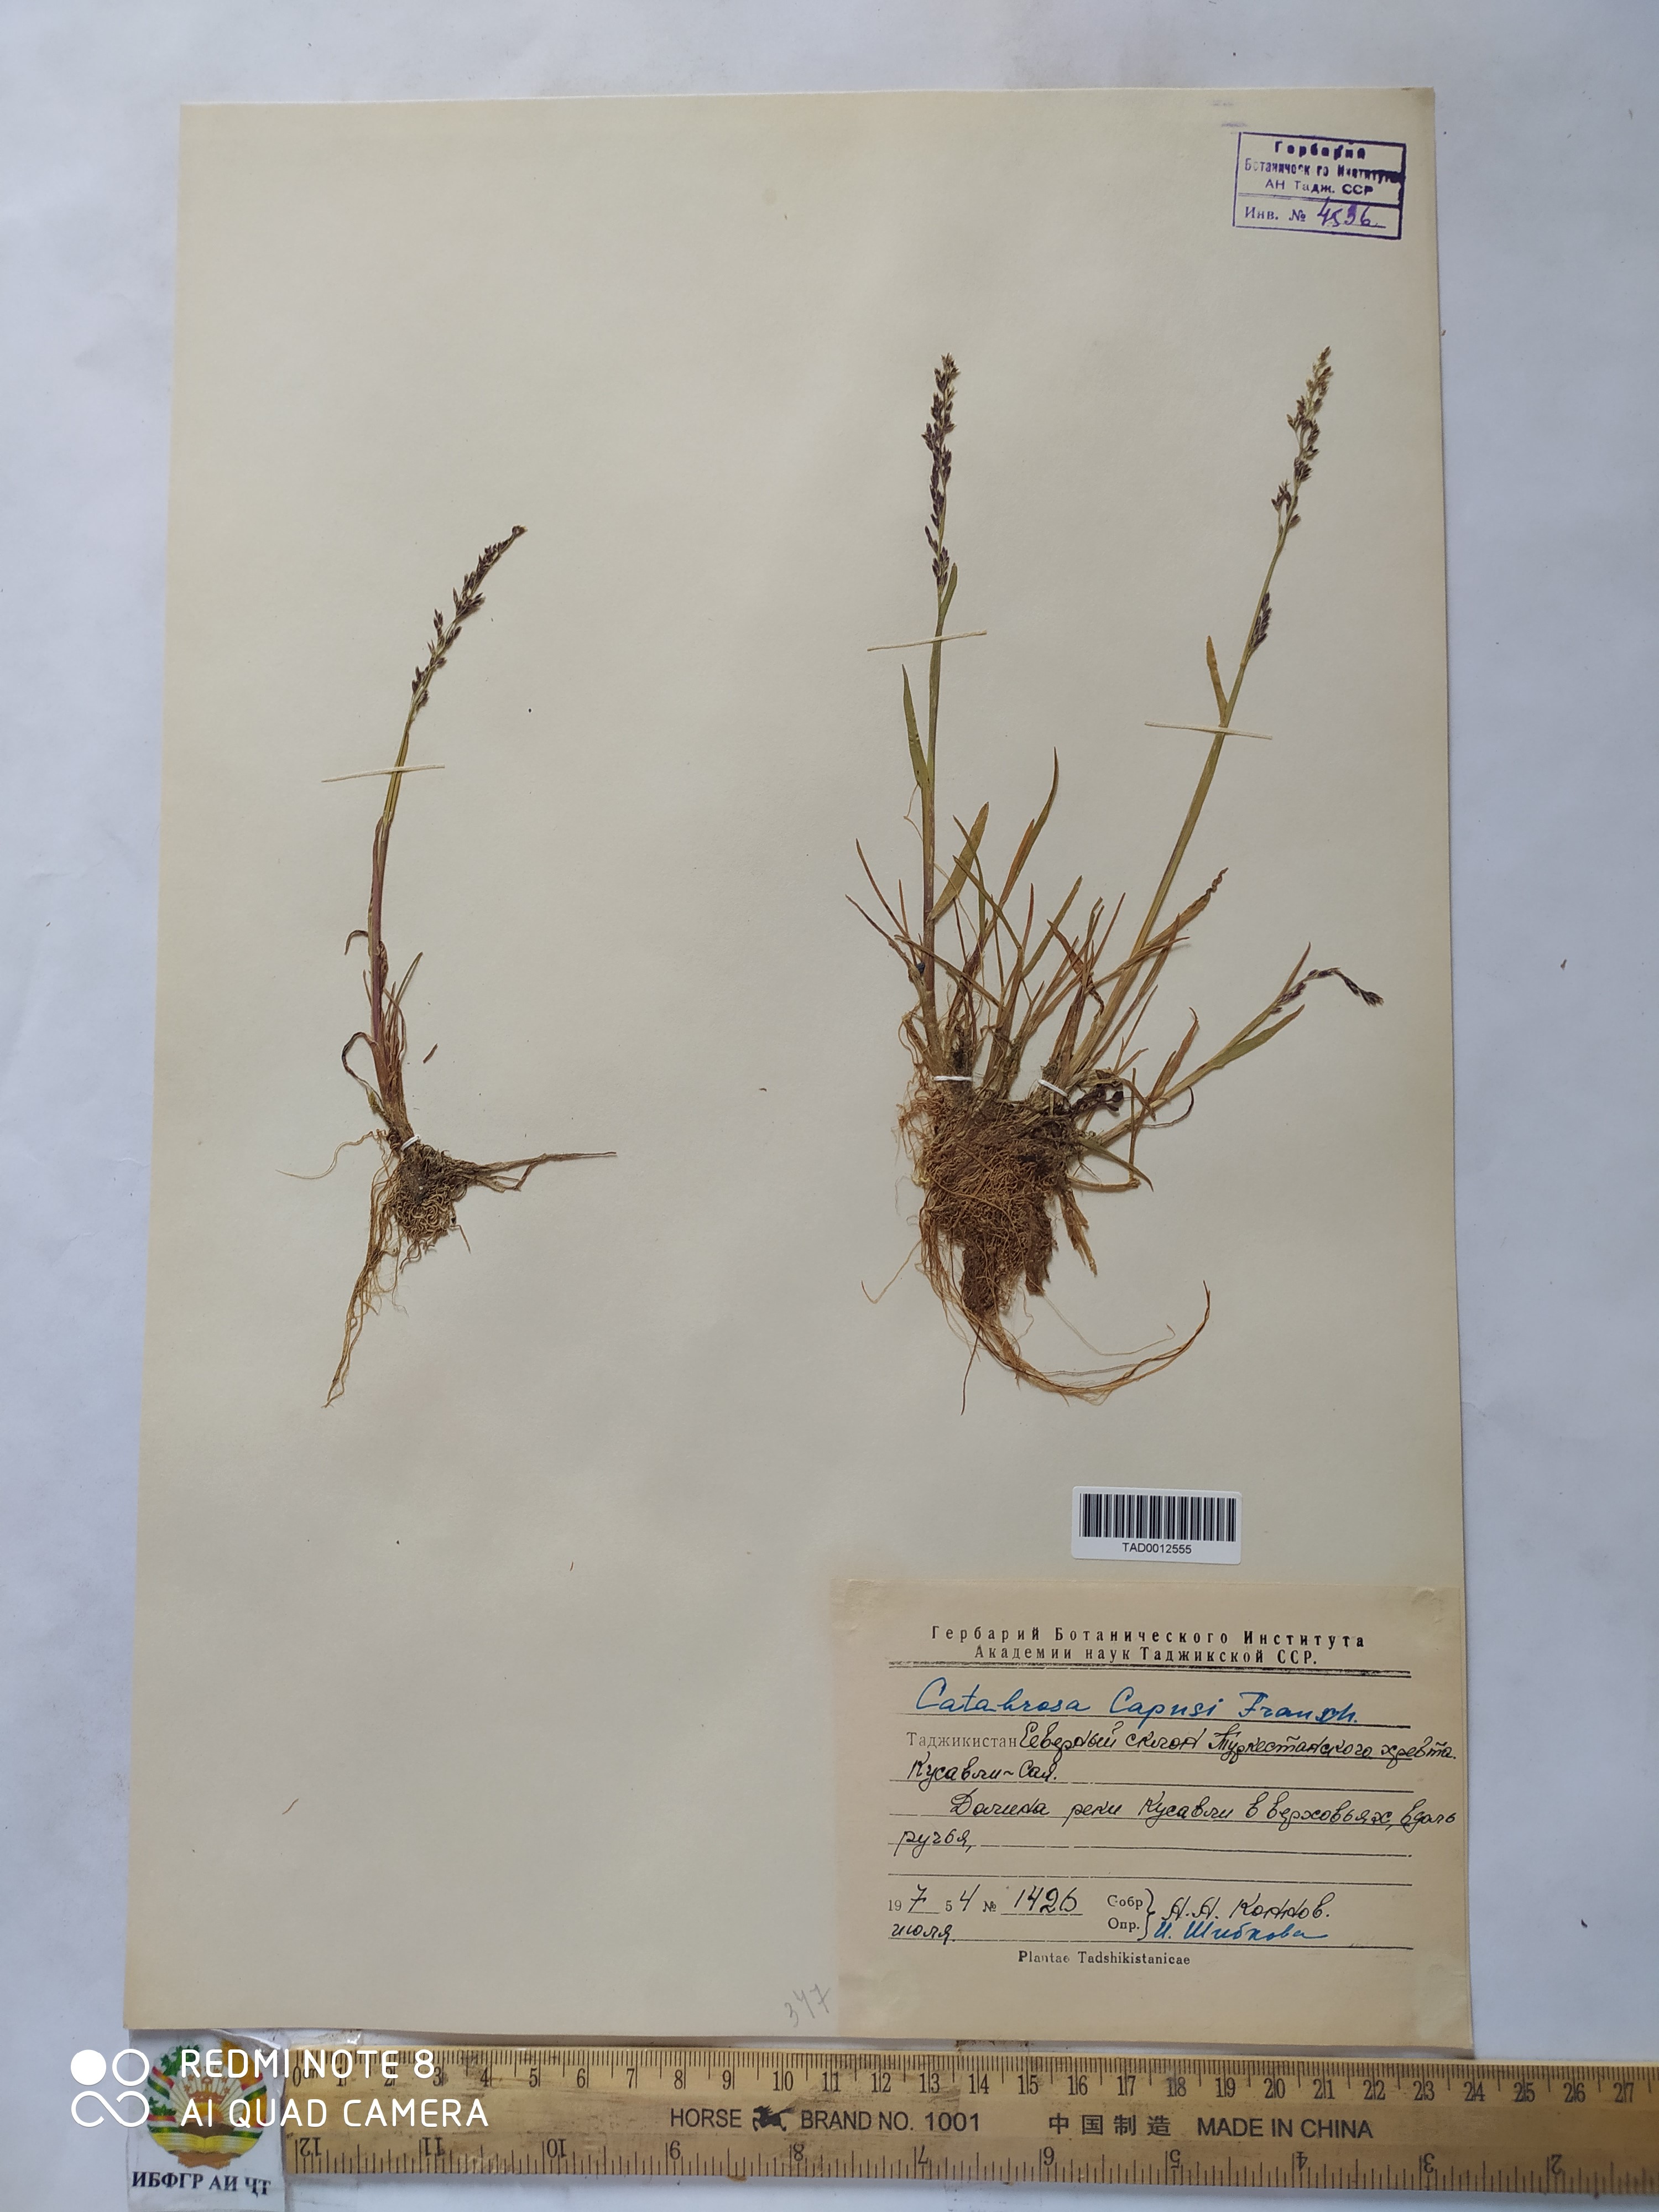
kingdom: Plantae
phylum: Tracheophyta
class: Liliopsida
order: Poales
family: Poaceae
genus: Catabrosa
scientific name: Catabrosa aquatica
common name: Whorl-grass
